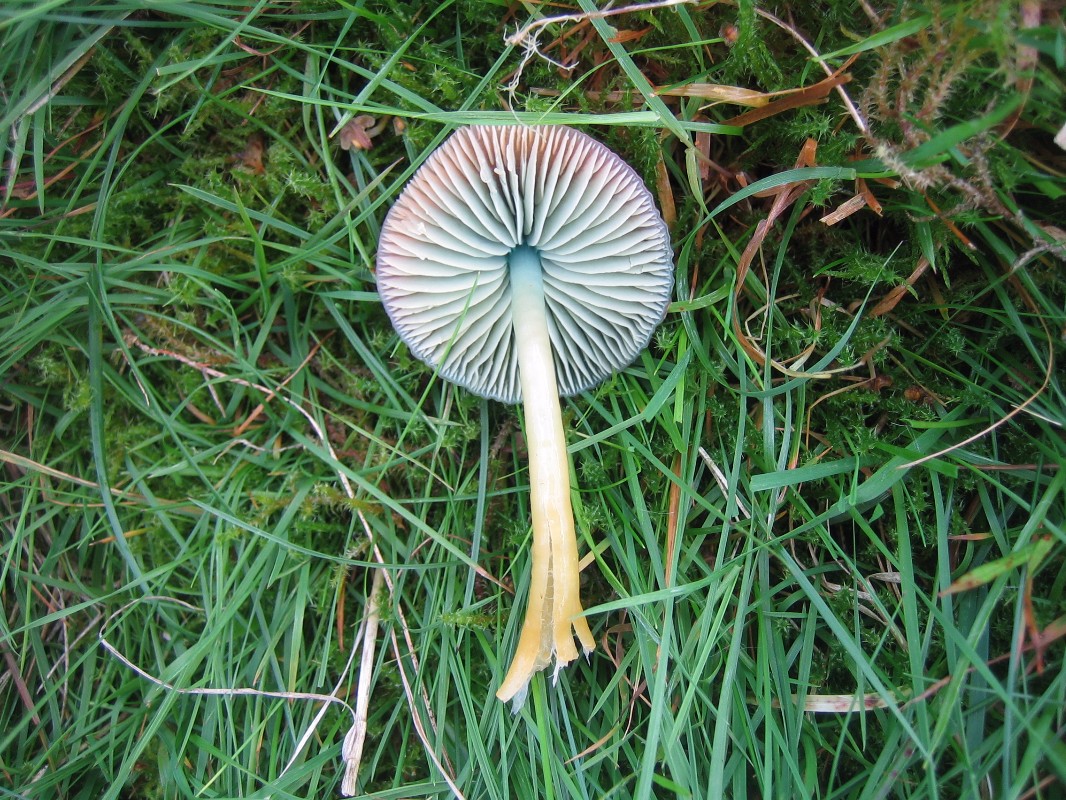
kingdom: Fungi
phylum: Basidiomycota
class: Agaricomycetes
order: Agaricales
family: Hygrophoraceae
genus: Gliophorus
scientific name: Gliophorus psittacinus
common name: papegøje-vokshat
